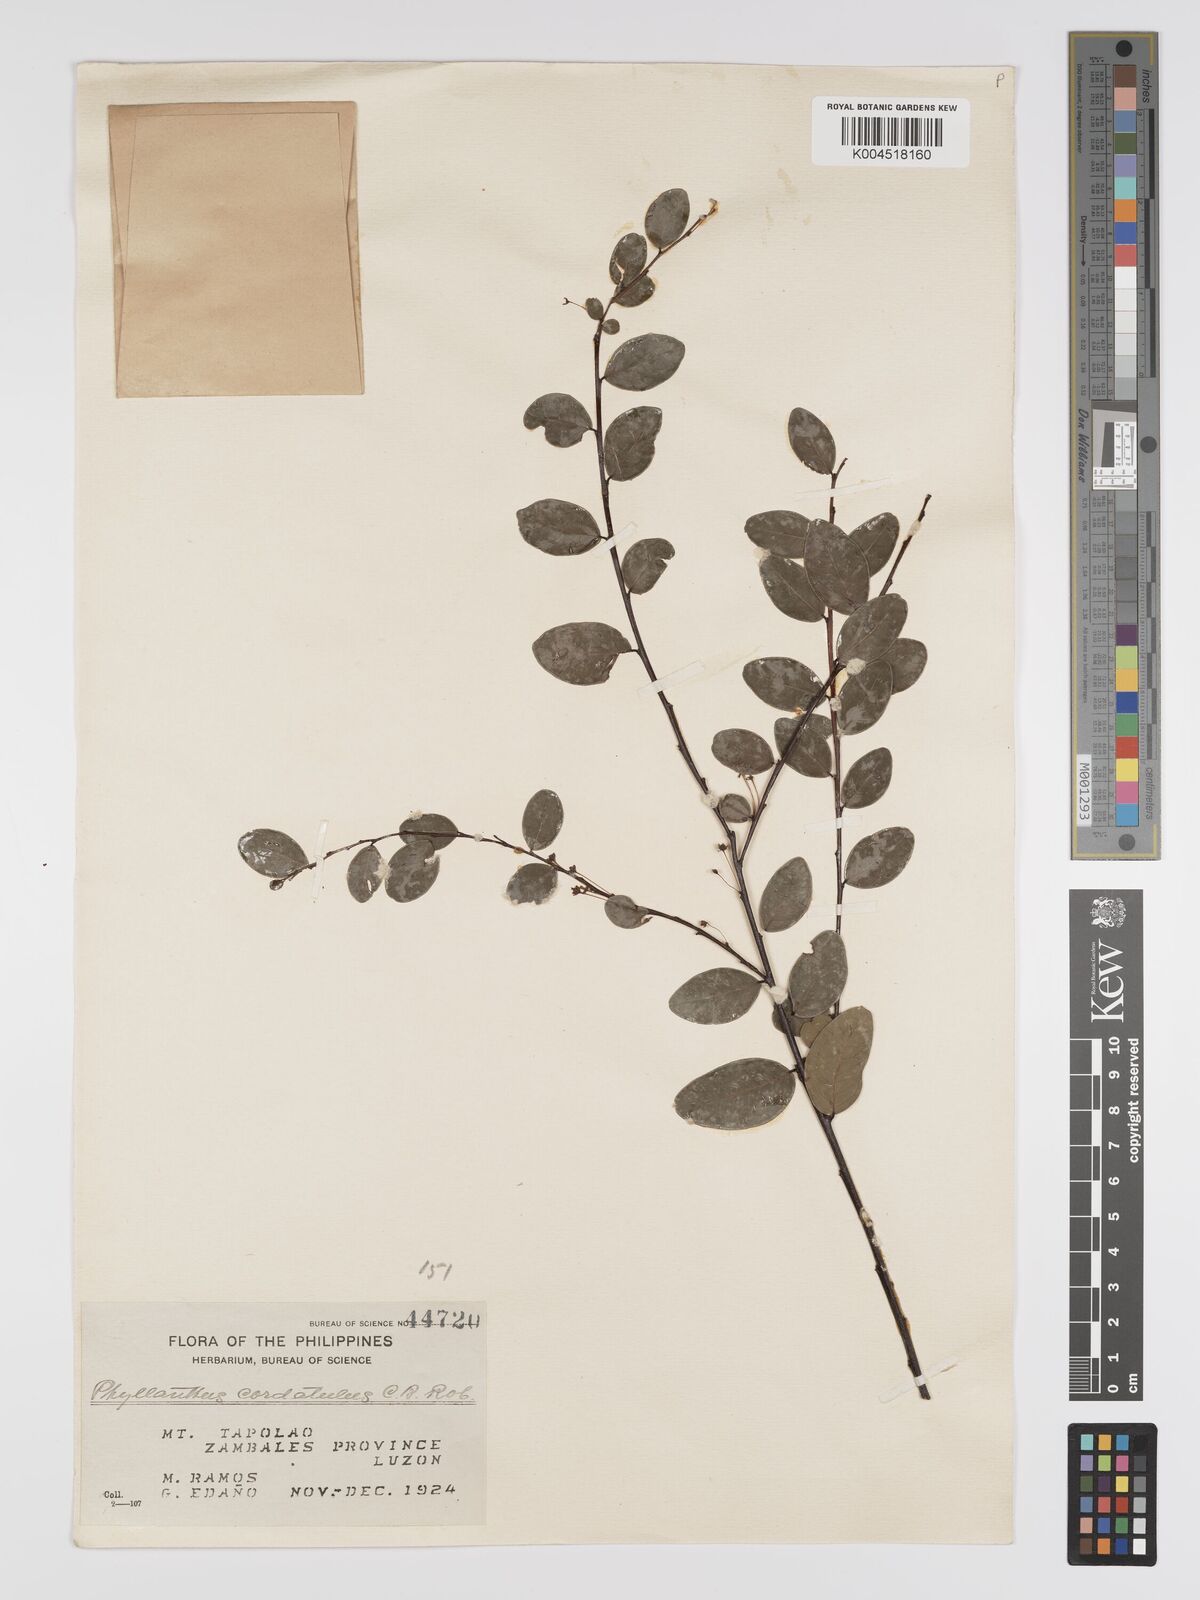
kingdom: Plantae
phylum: Tracheophyta
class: Magnoliopsida
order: Malpighiales
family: Phyllanthaceae
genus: Phyllanthus
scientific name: Phyllanthus cordatulus
